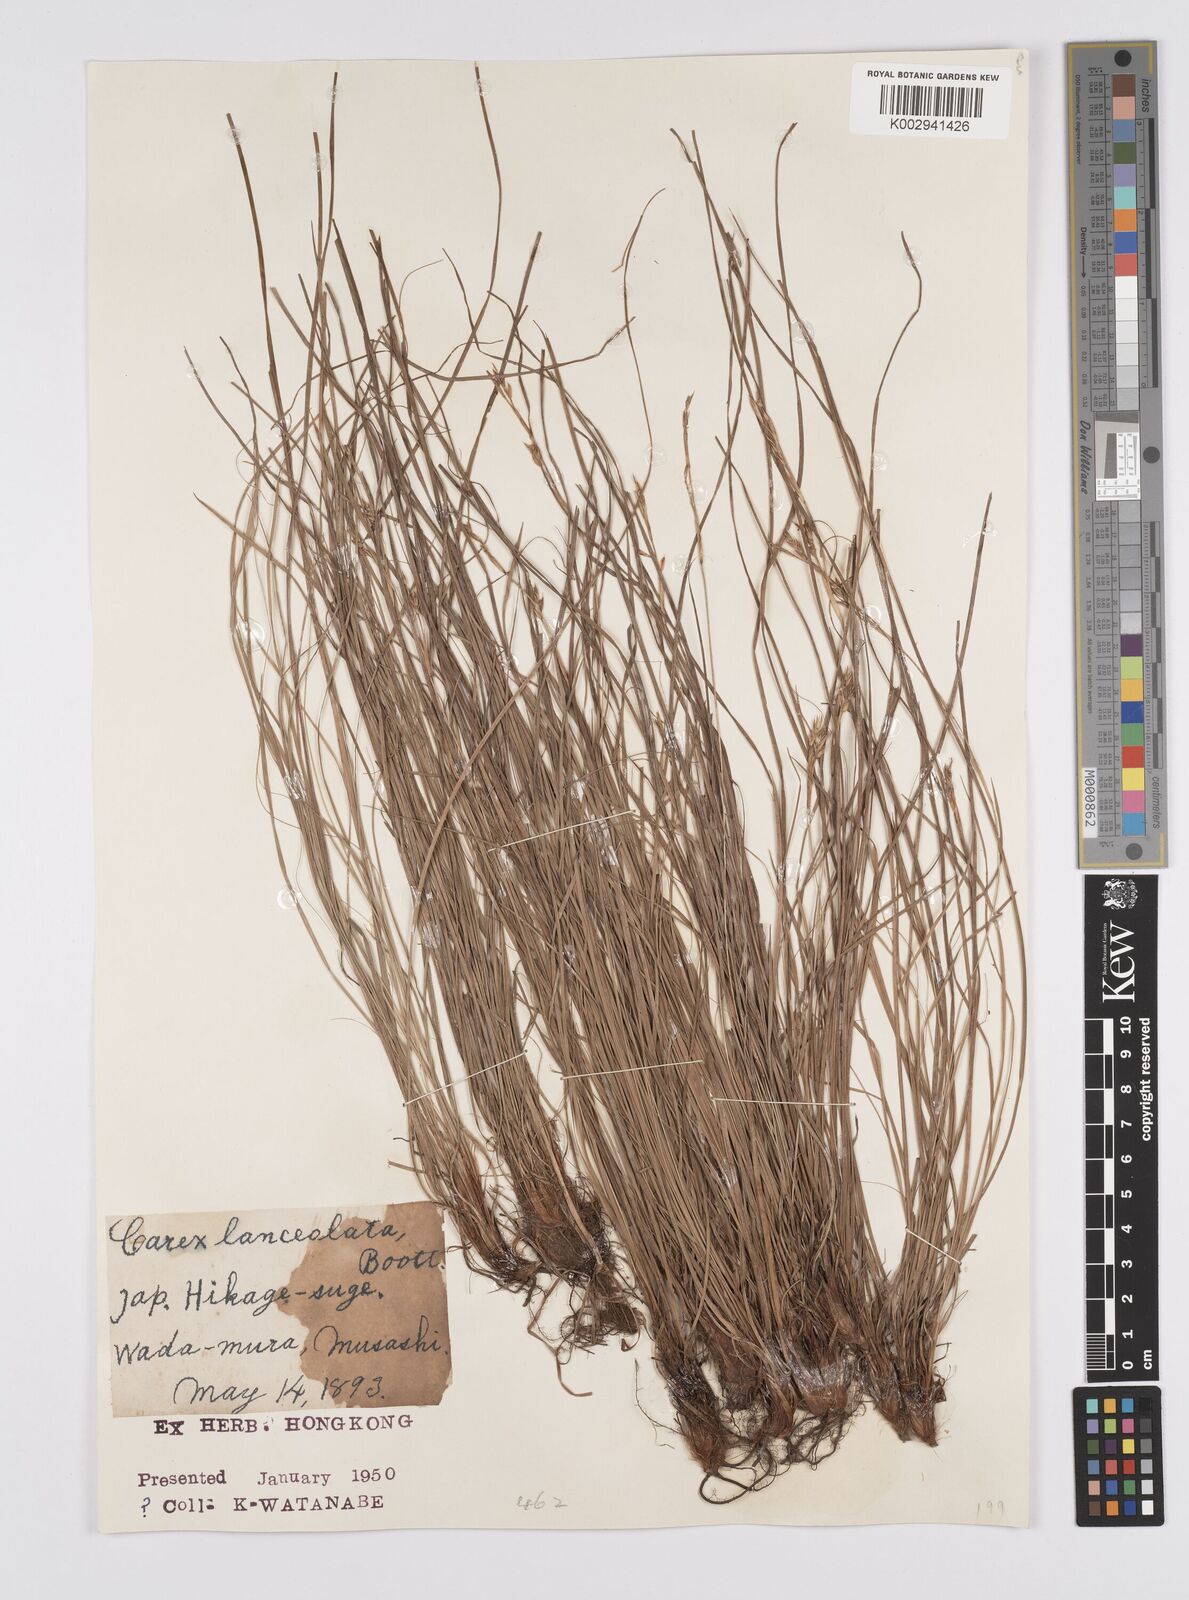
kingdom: Plantae
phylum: Tracheophyta
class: Liliopsida
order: Poales
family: Cyperaceae
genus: Carex
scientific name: Carex lanceolata
